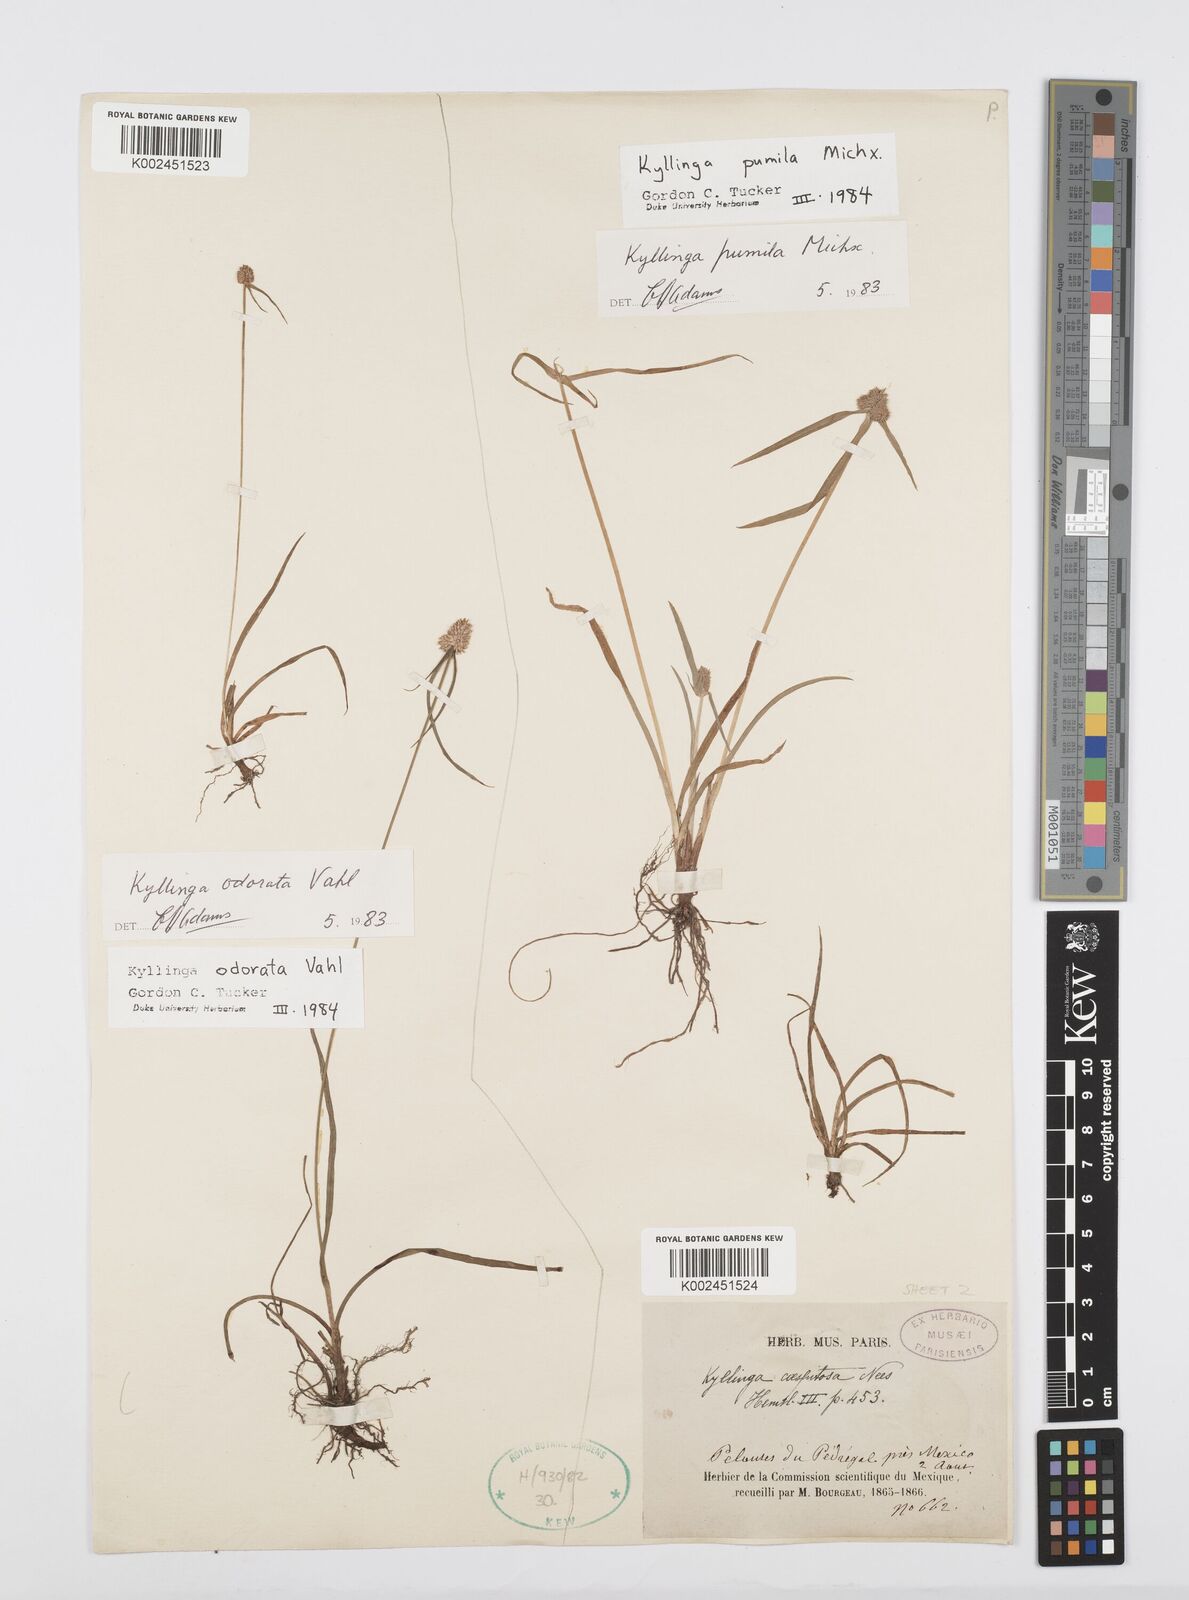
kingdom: Plantae
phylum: Tracheophyta
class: Liliopsida
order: Poales
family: Cyperaceae
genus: Cyperus
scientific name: Cyperus hortensis
